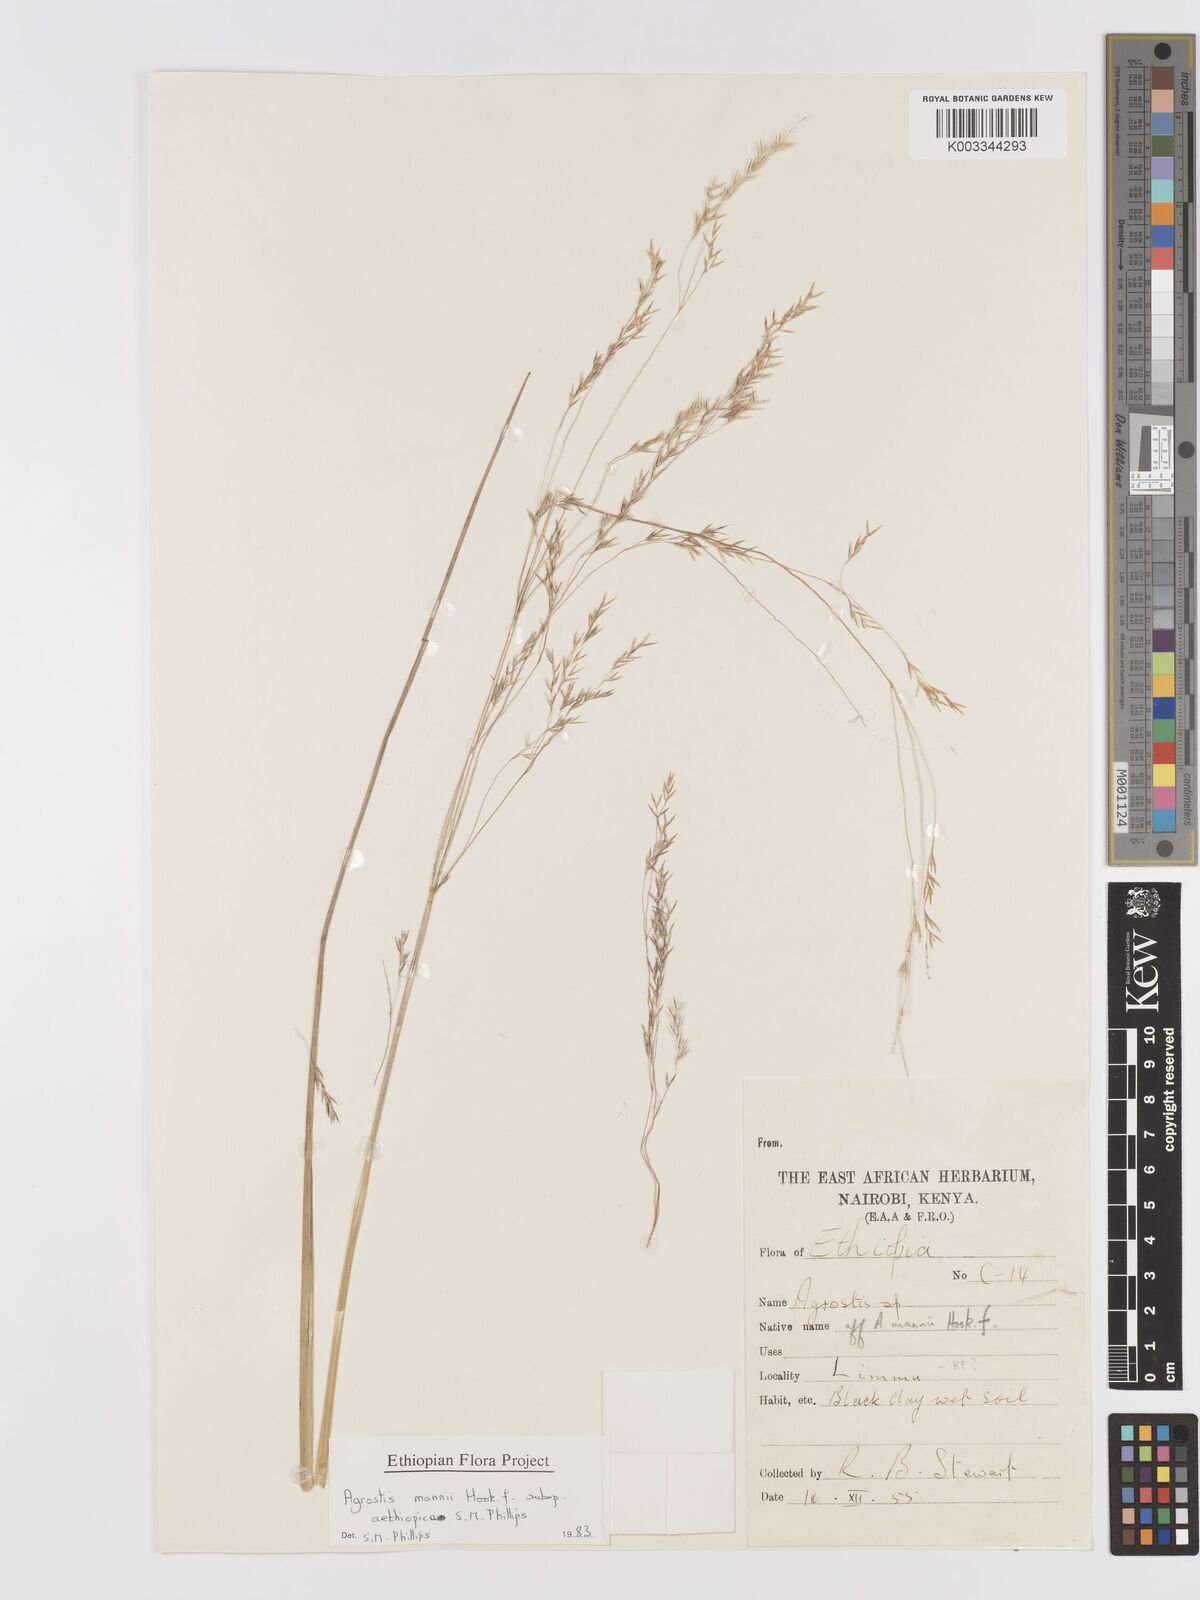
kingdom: Plantae
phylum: Tracheophyta
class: Liliopsida
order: Poales
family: Poaceae
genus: Agrostis
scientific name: Agrostis mannii
